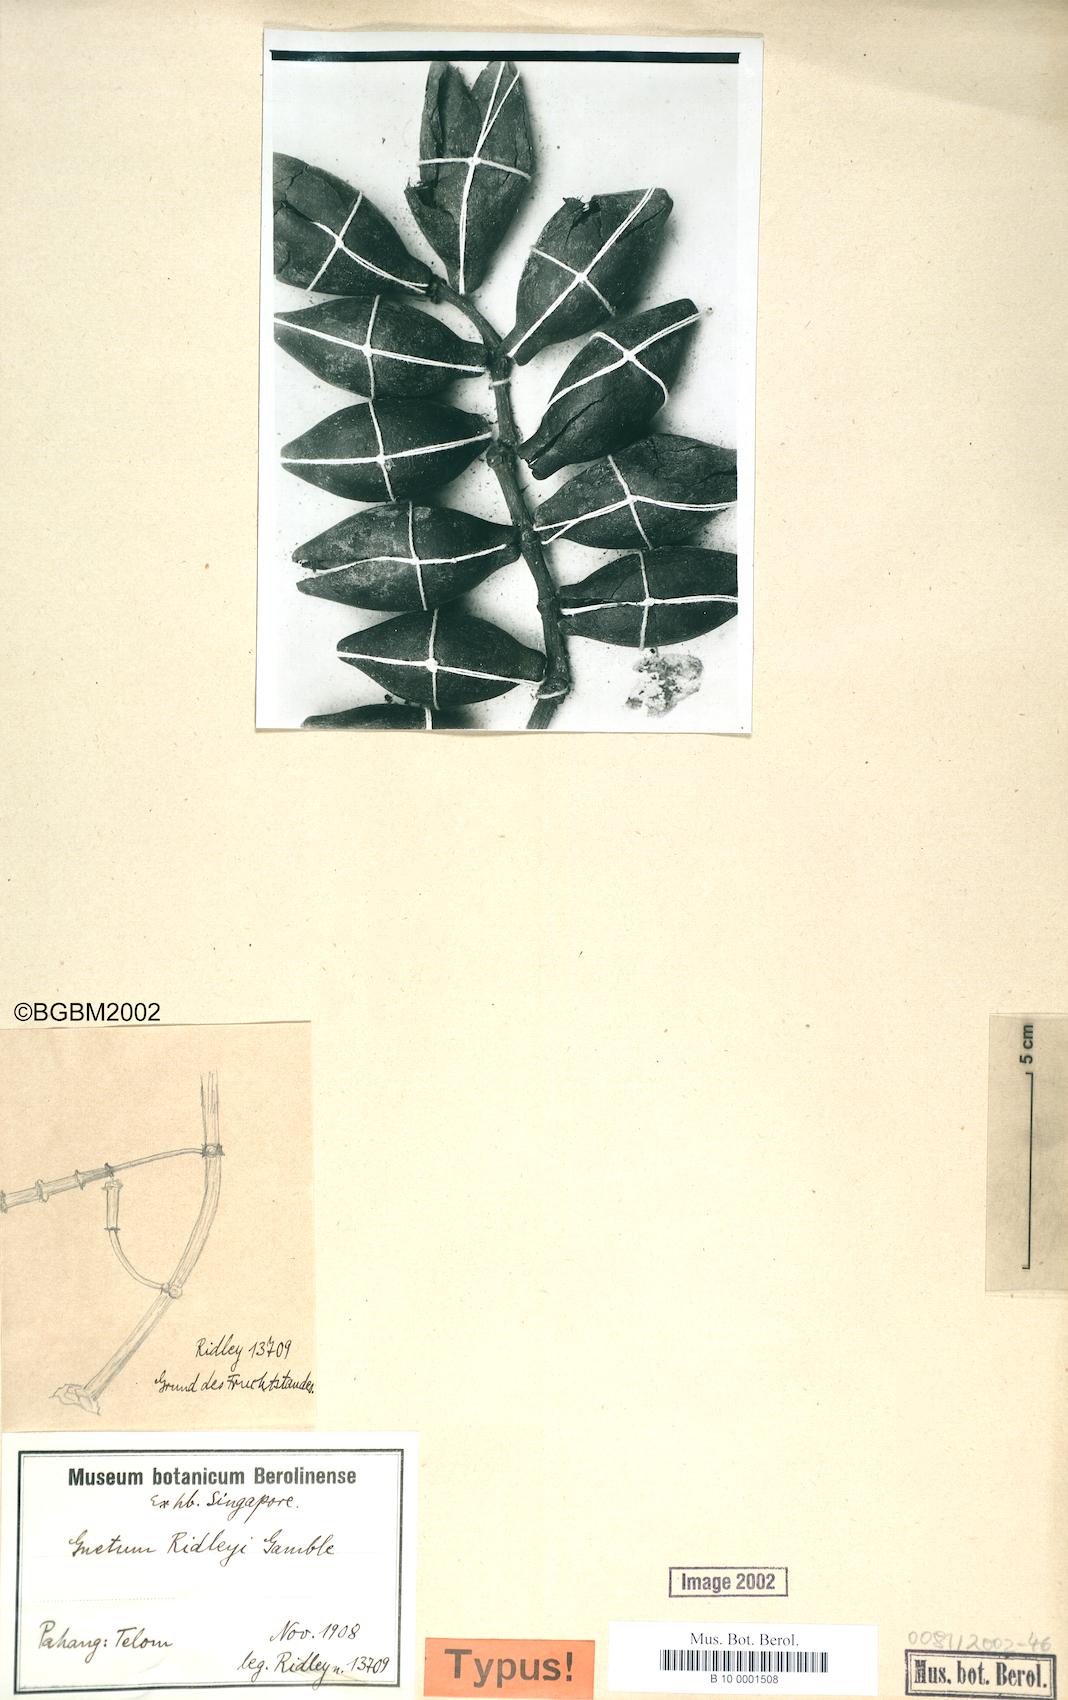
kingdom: Plantae
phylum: Tracheophyta
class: Gnetopsida
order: Gnetales
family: Gnetaceae
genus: Gnetum
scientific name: Gnetum ridleyi
